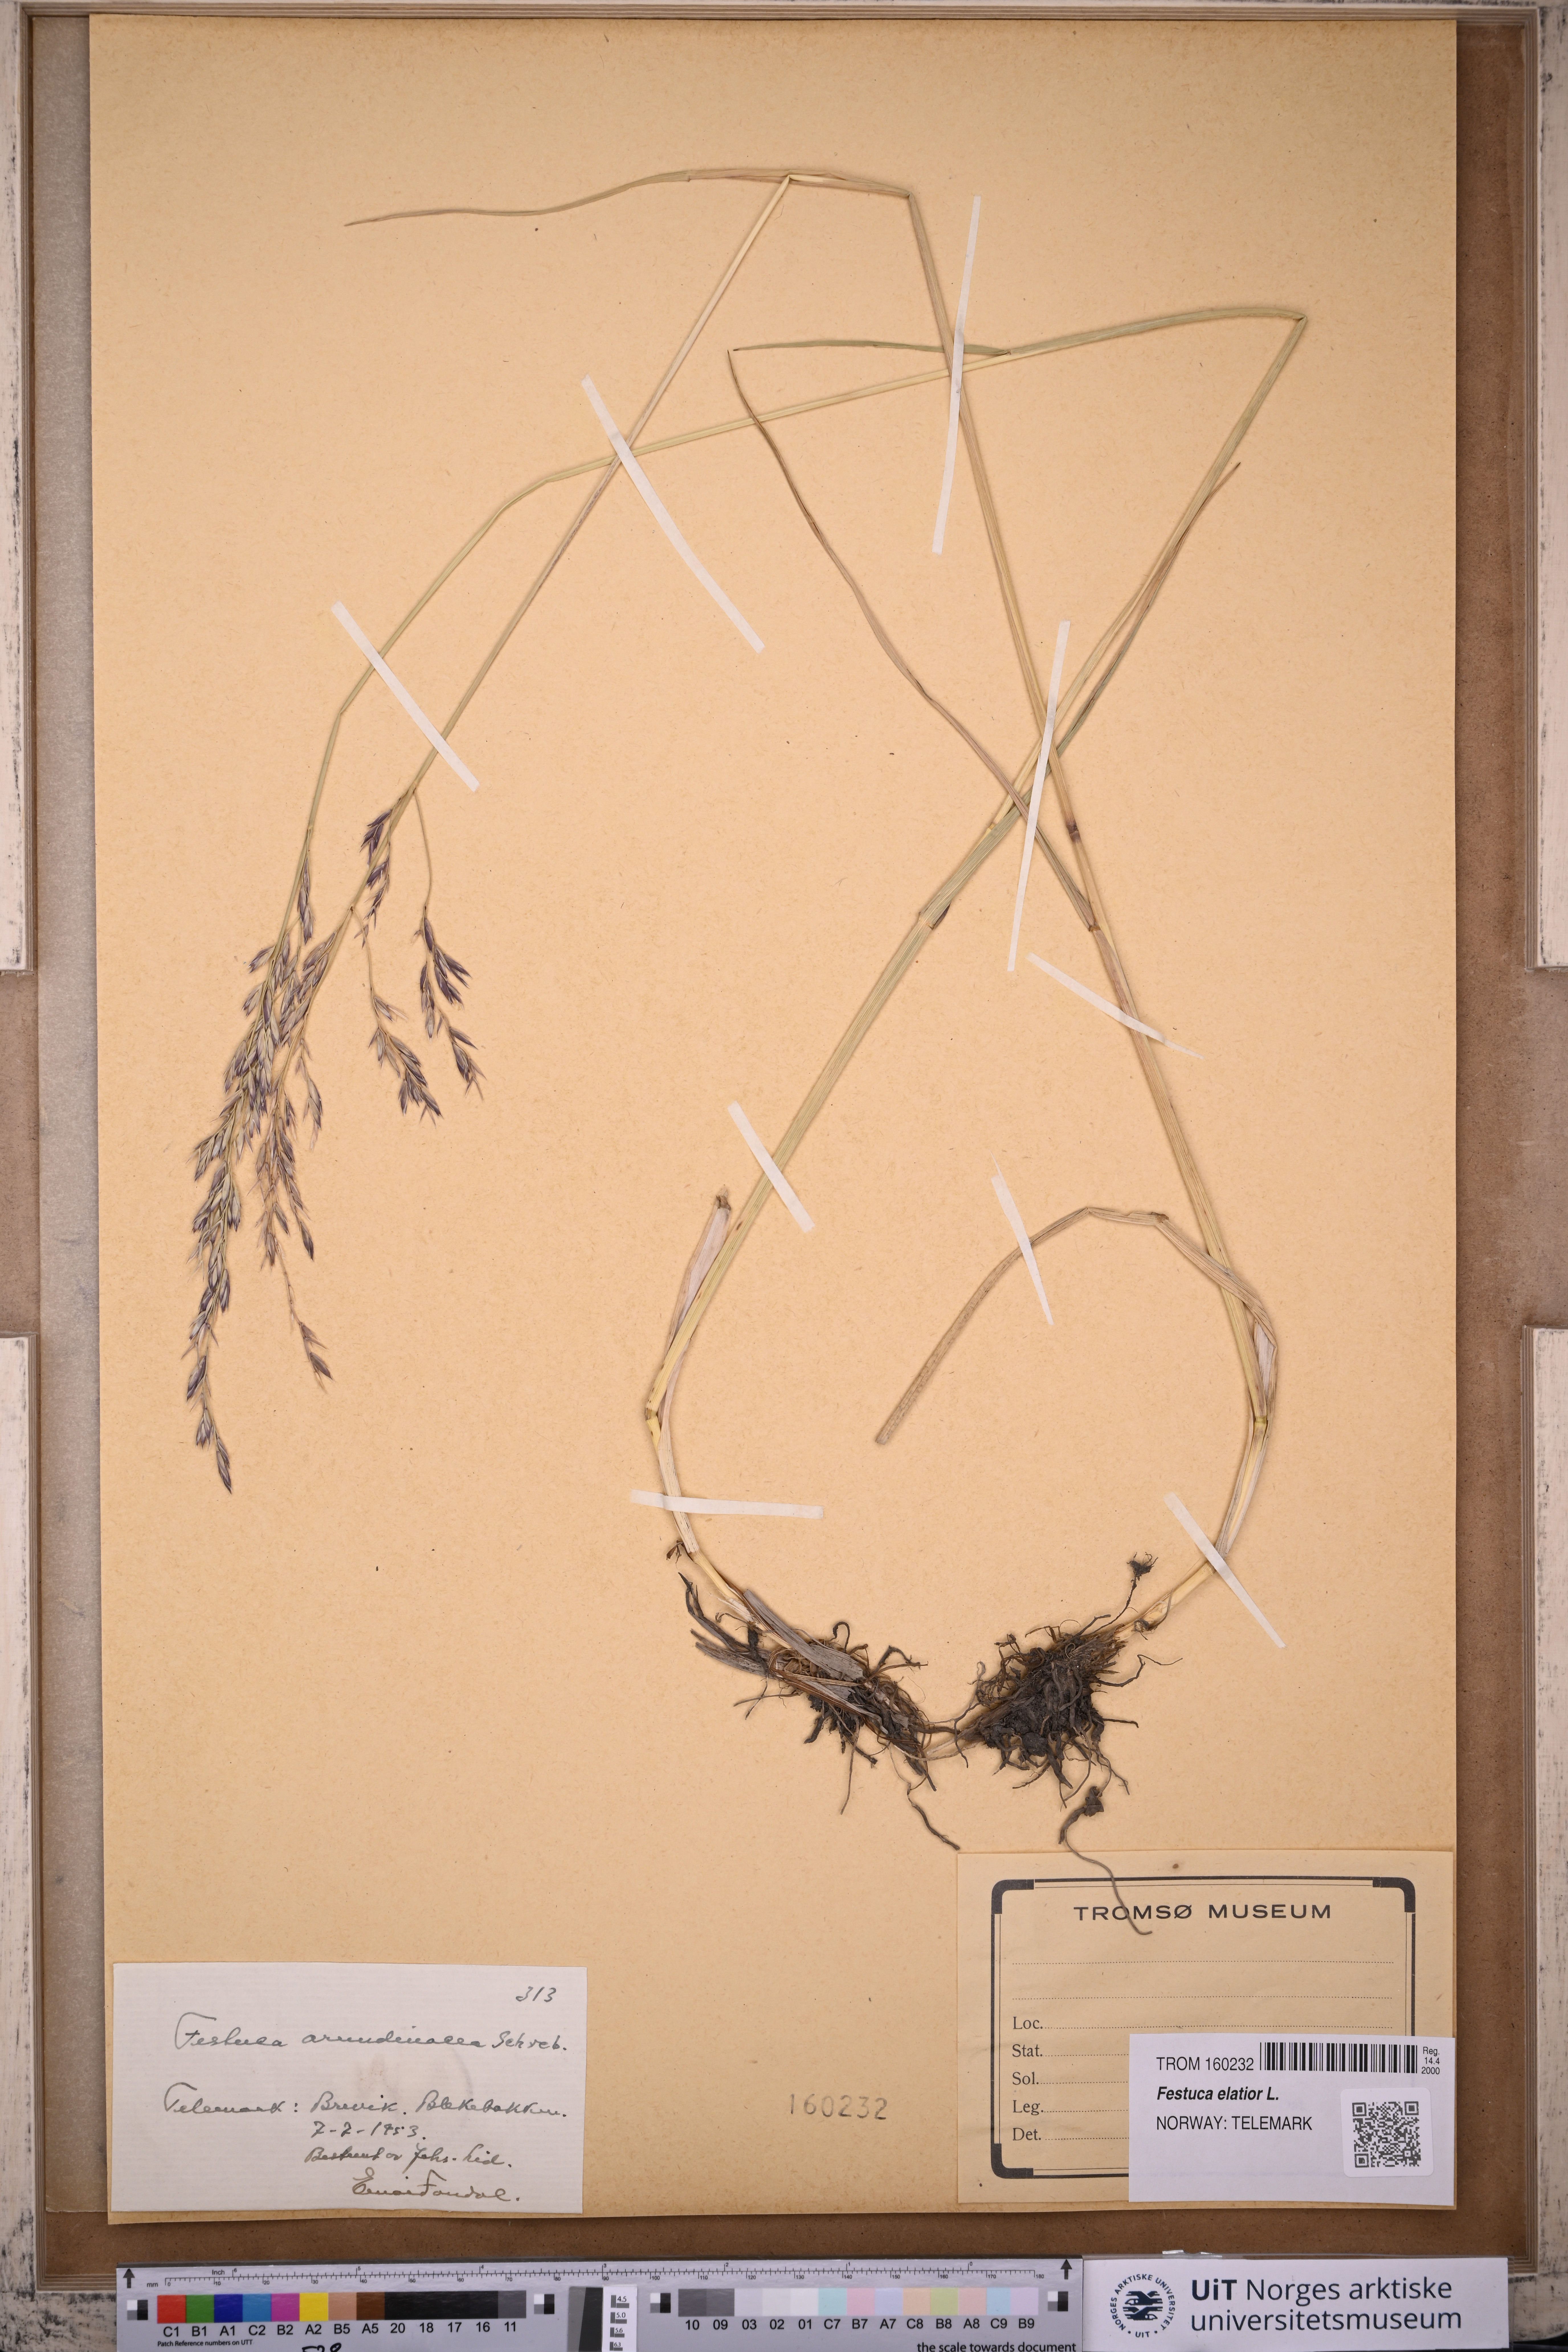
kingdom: Plantae
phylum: Tracheophyta
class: Liliopsida
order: Poales
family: Poaceae
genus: Lolium
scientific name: Lolium arundinaceum
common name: Reed fescue
